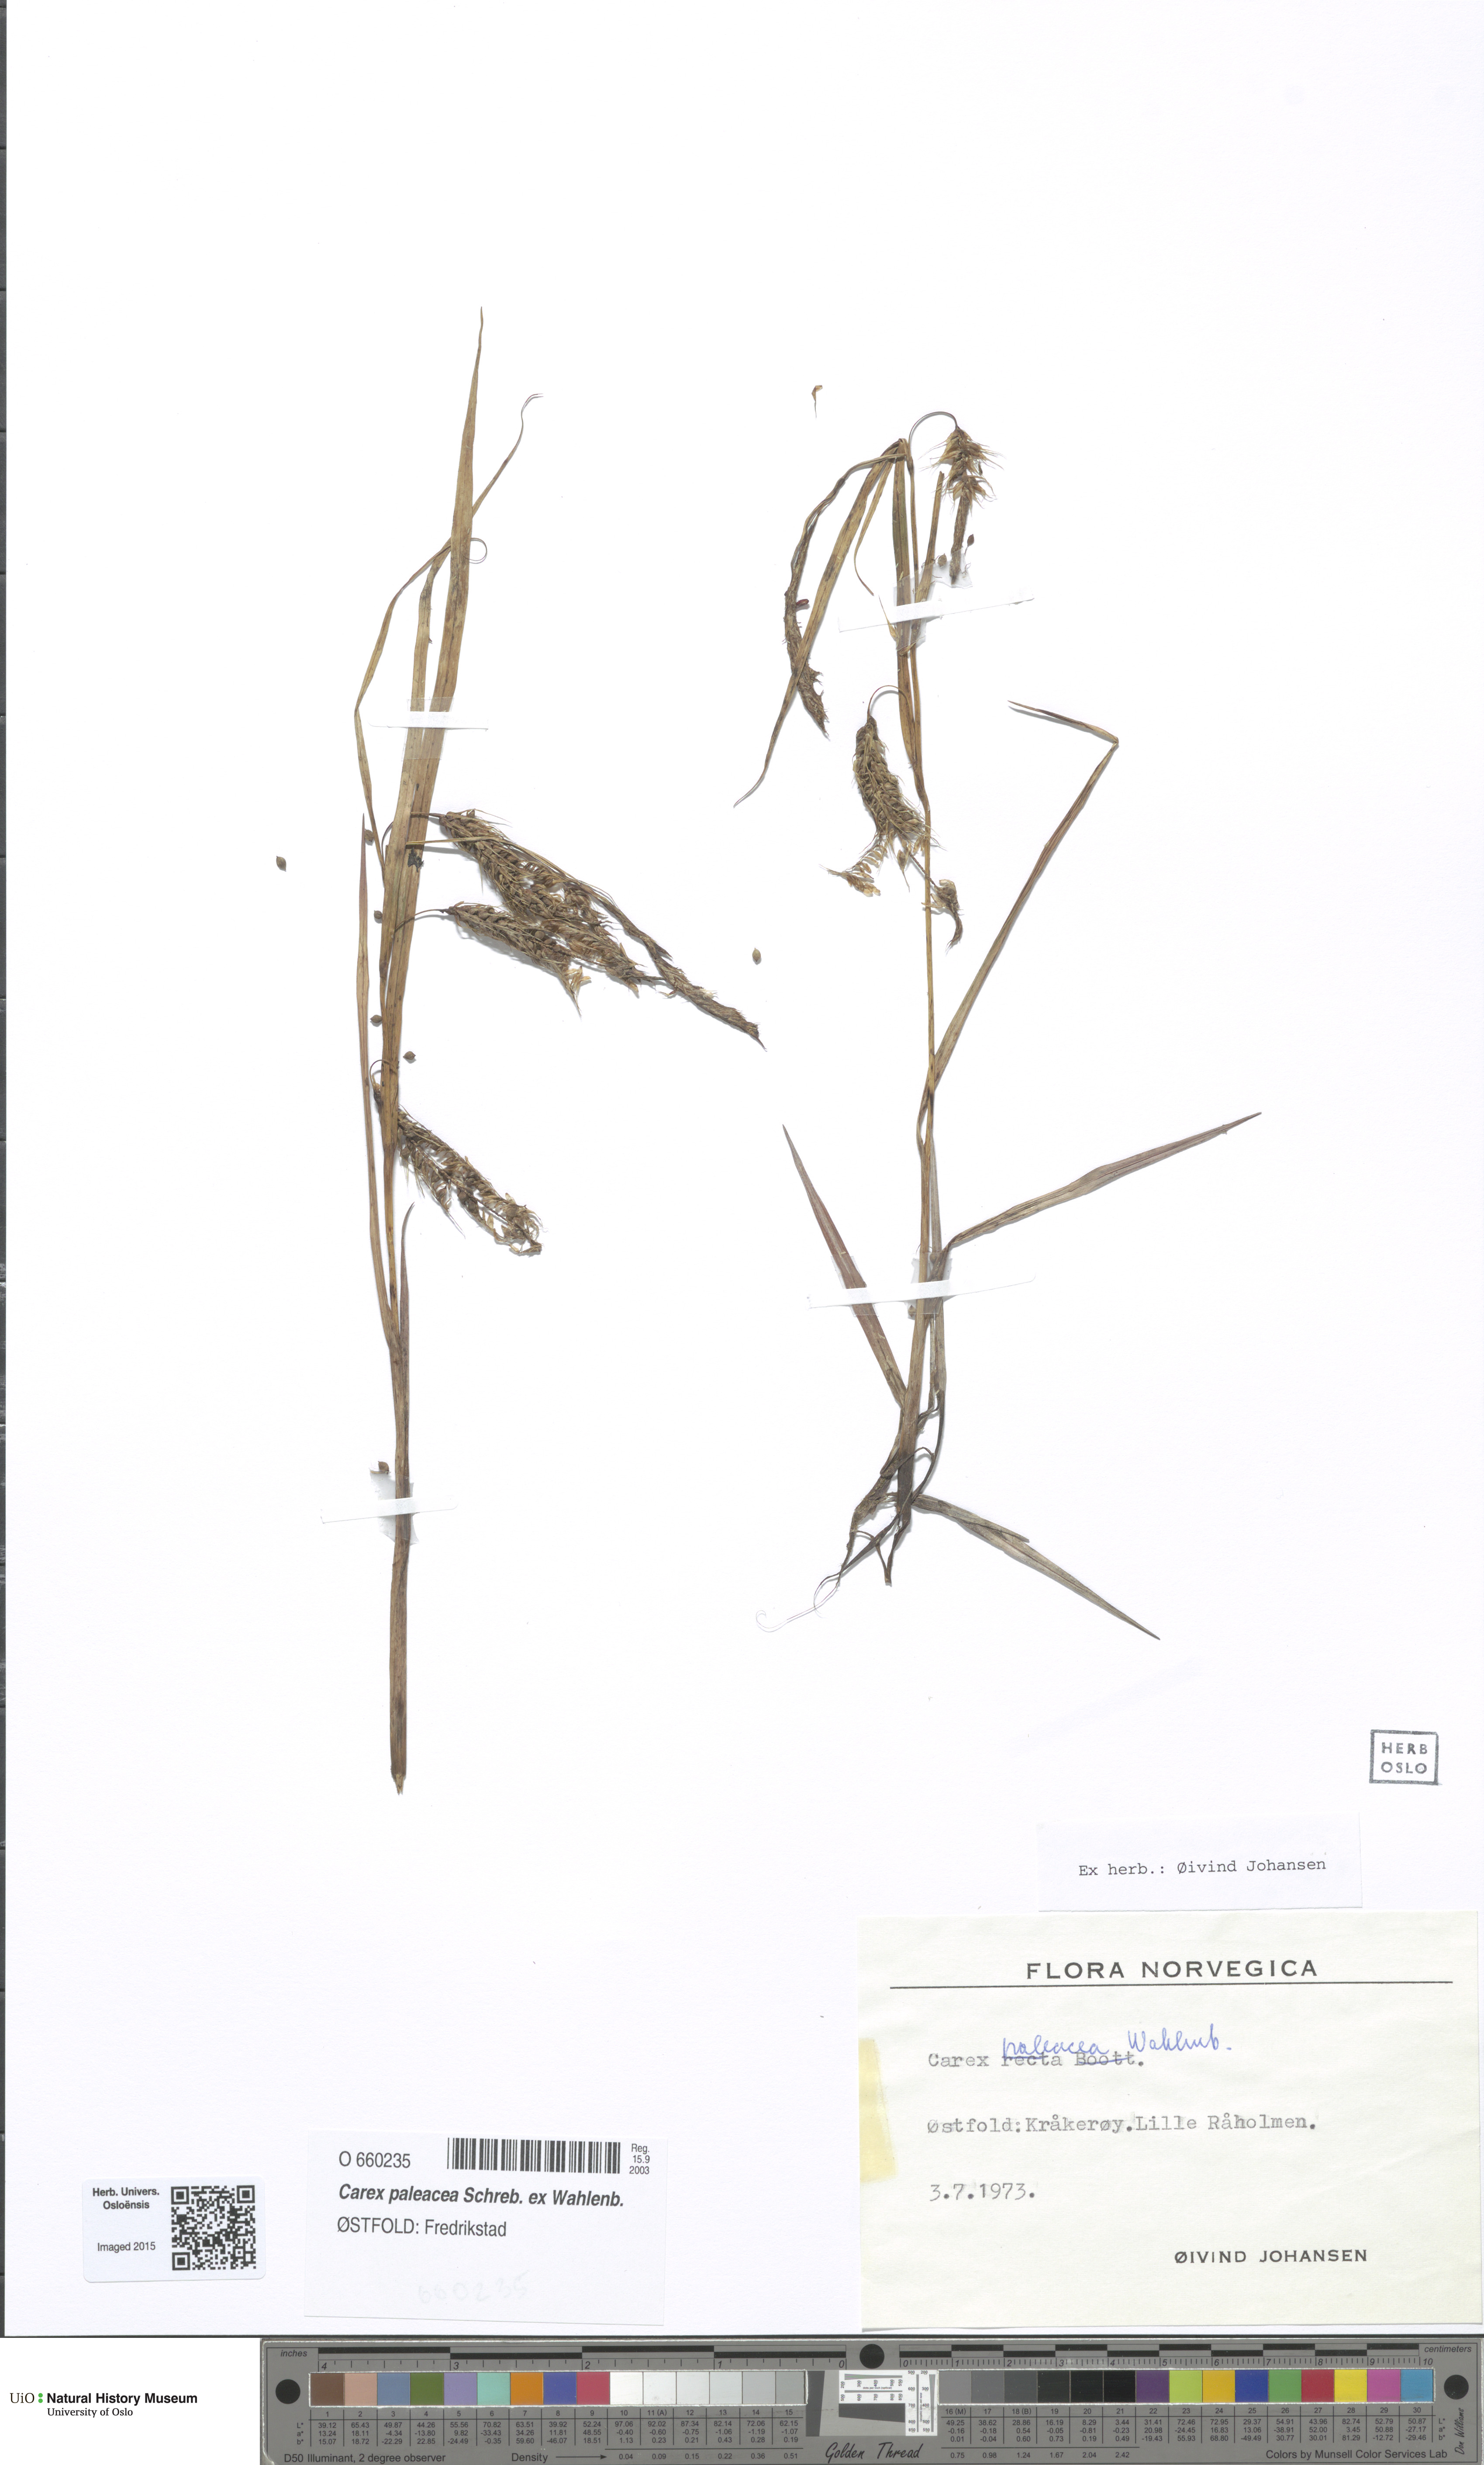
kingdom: Plantae
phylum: Tracheophyta
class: Liliopsida
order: Poales
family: Cyperaceae
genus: Carex
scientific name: Carex paleacea
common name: Chaffy sedge
